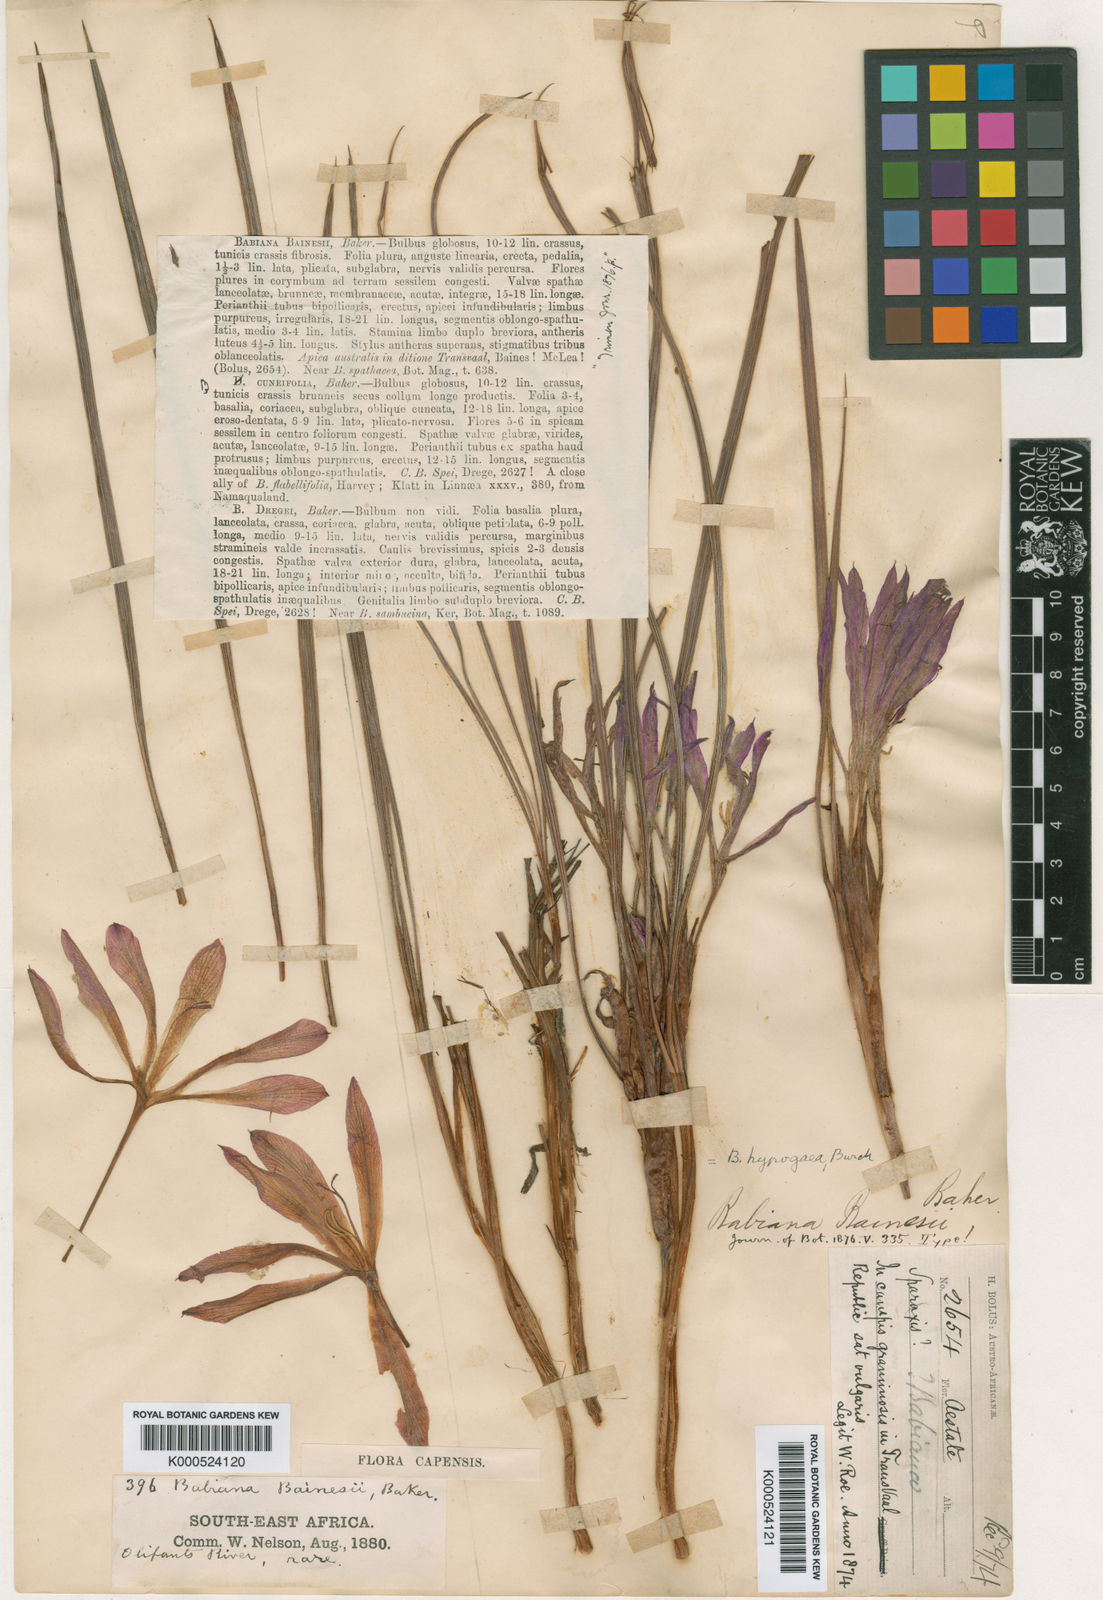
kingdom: Plantae
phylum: Tracheophyta
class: Liliopsida
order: Asparagales
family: Iridaceae
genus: Babiana
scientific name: Babiana bainesii
